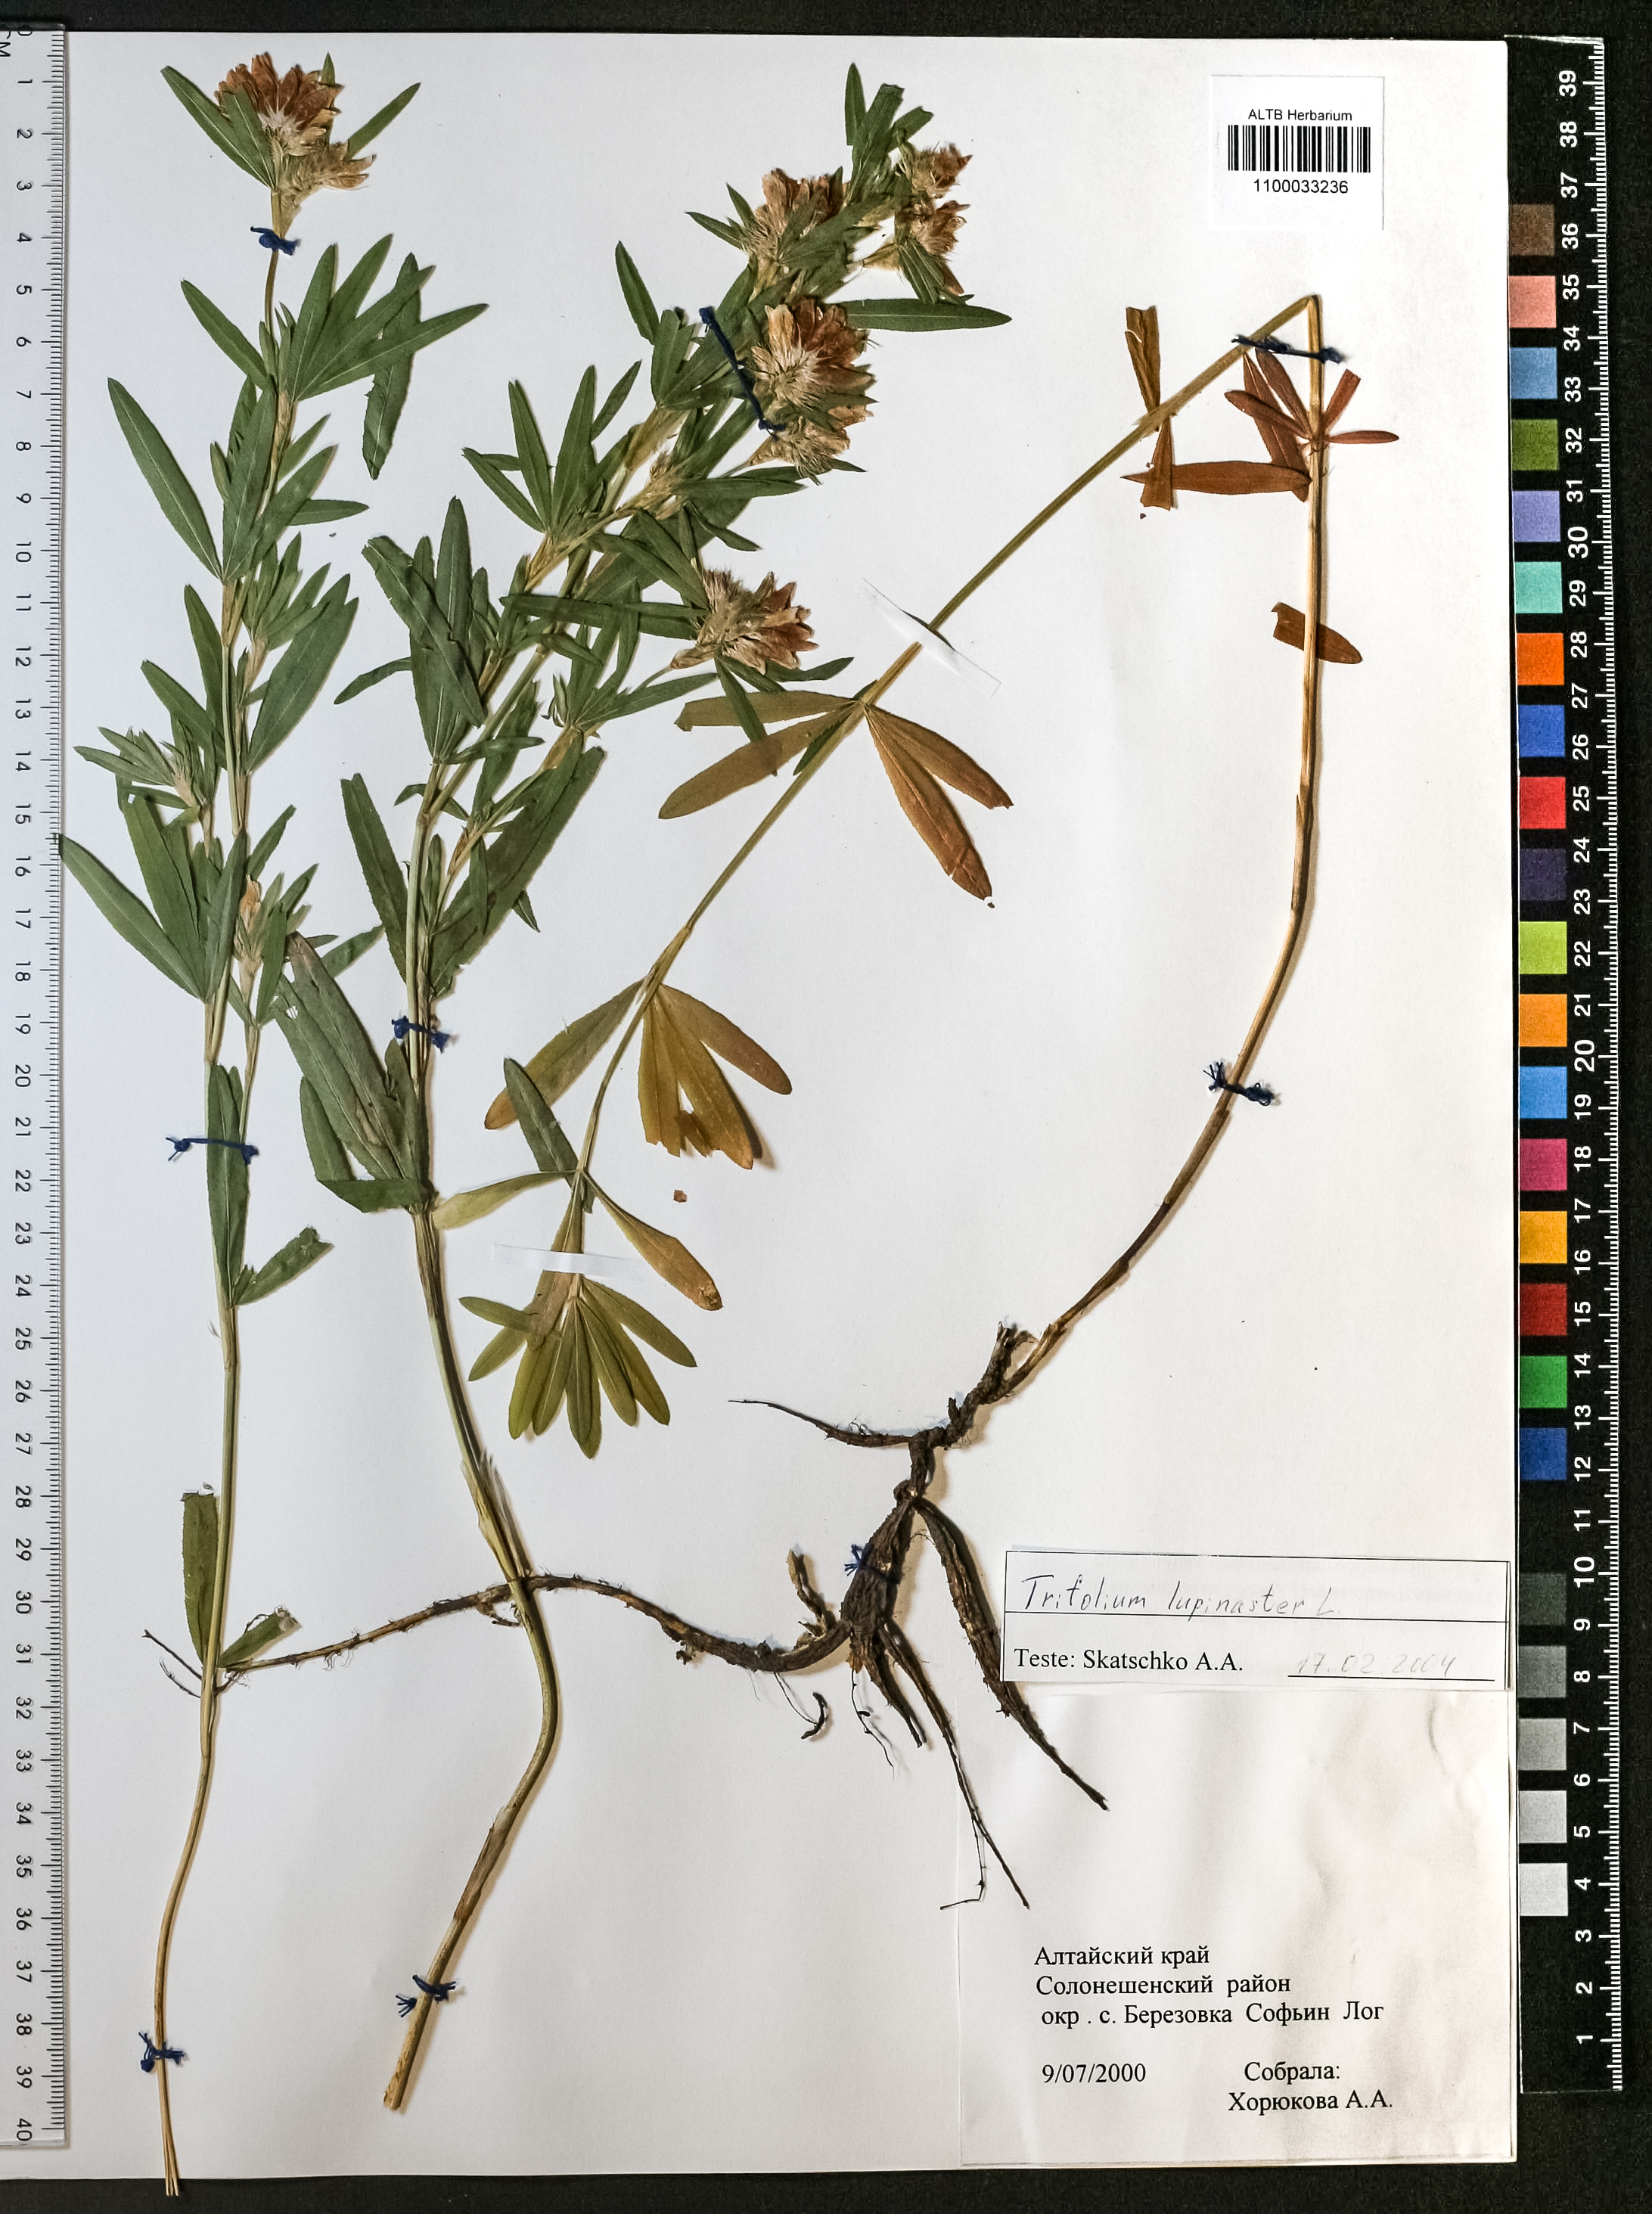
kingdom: Plantae
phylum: Tracheophyta
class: Magnoliopsida
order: Fabales
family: Fabaceae
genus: Trifolium
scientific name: Trifolium lupinaster
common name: Lupine clover
